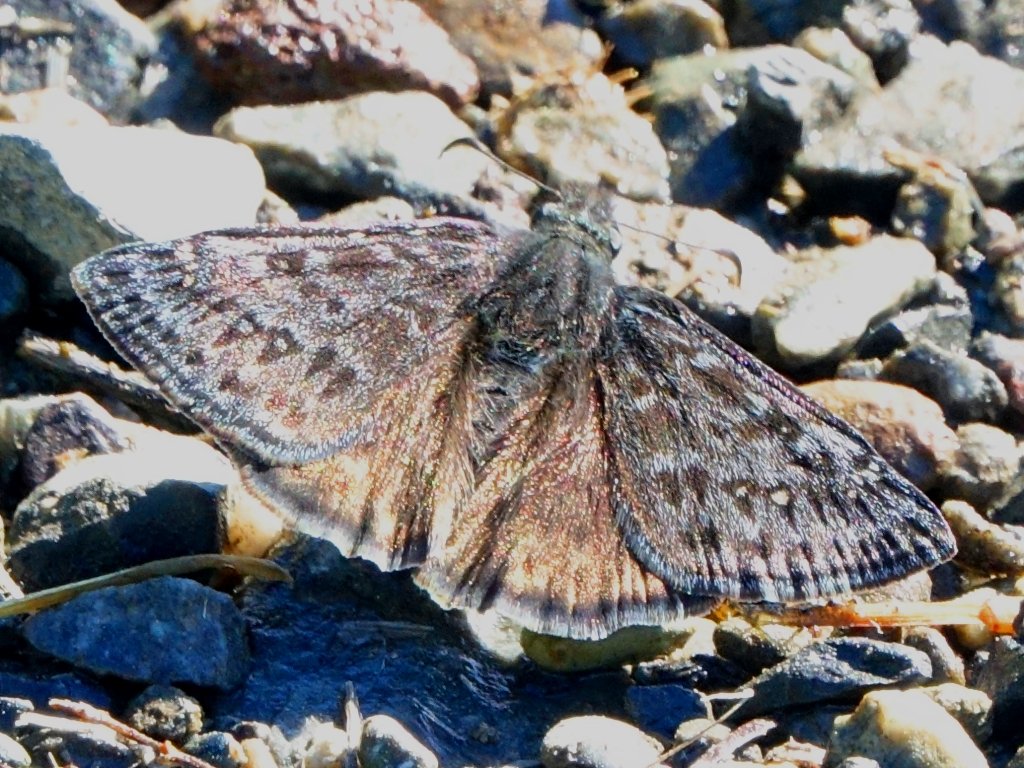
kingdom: Animalia
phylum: Arthropoda
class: Insecta
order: Lepidoptera
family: Hesperiidae
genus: Erynnis
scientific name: Erynnis propertius
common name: Propertius Duskywing
